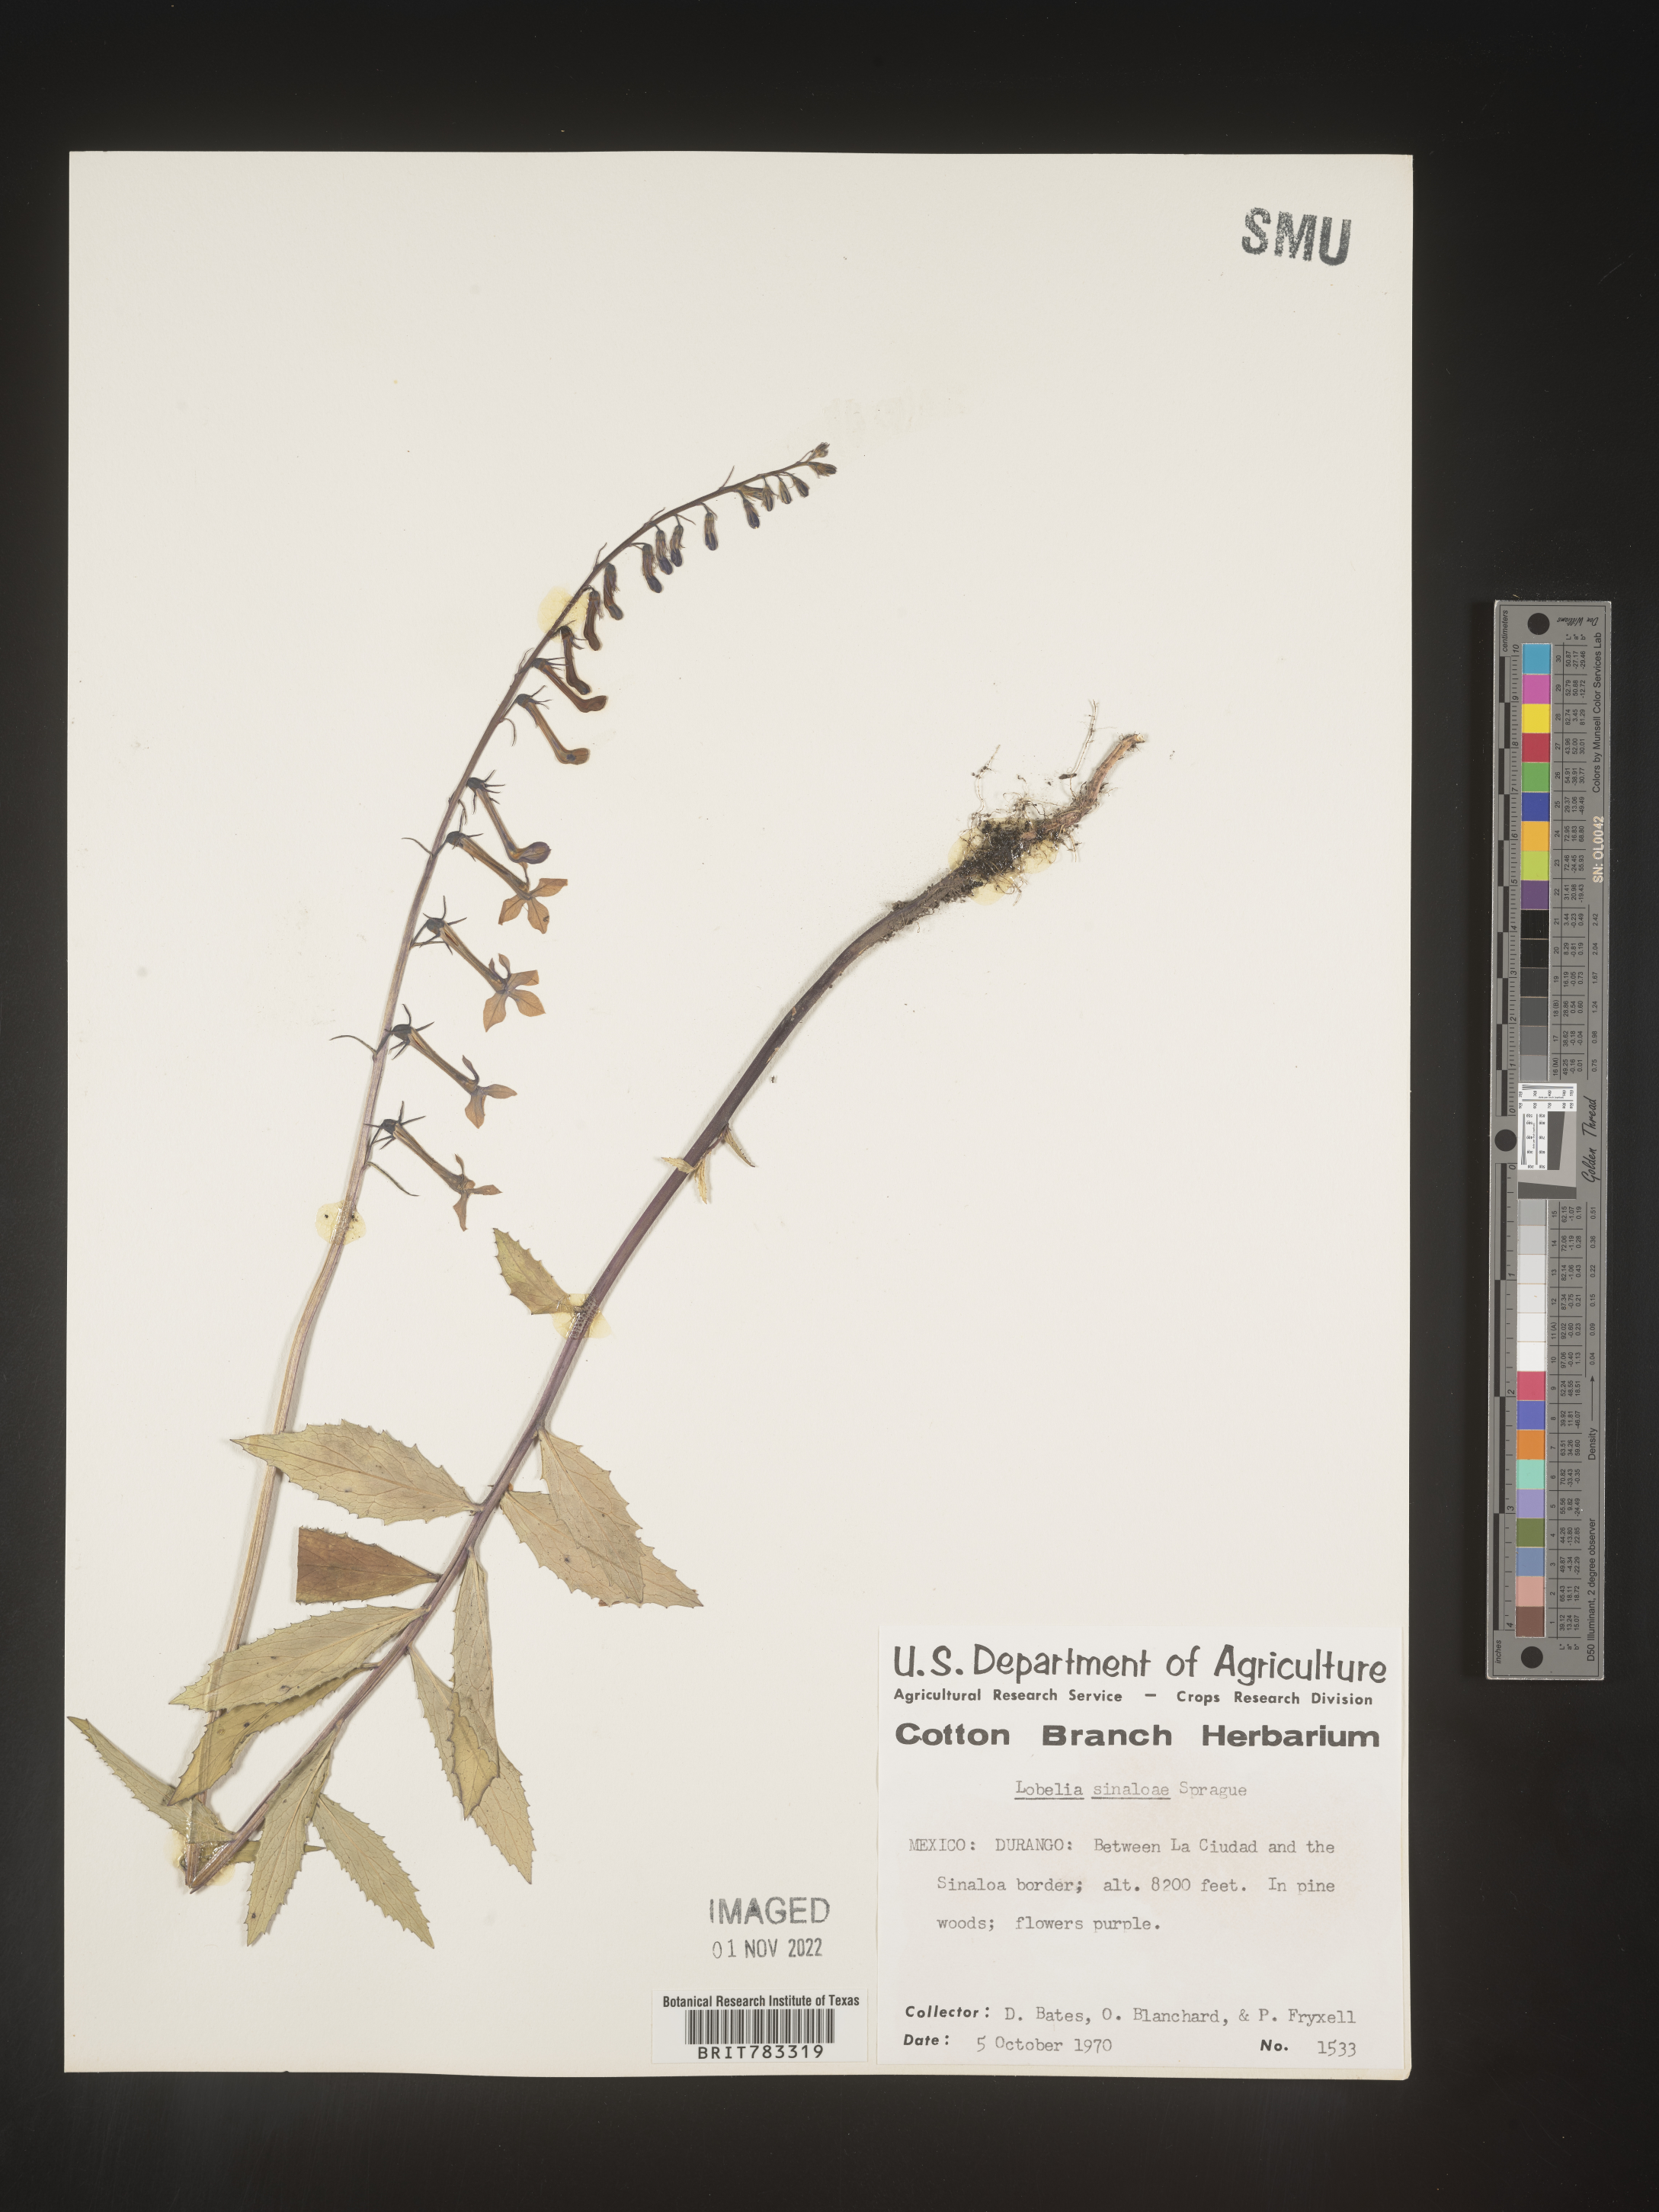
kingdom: Plantae
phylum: Tracheophyta
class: Magnoliopsida
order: Asterales
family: Campanulaceae
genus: Lobelia
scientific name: Lobelia
